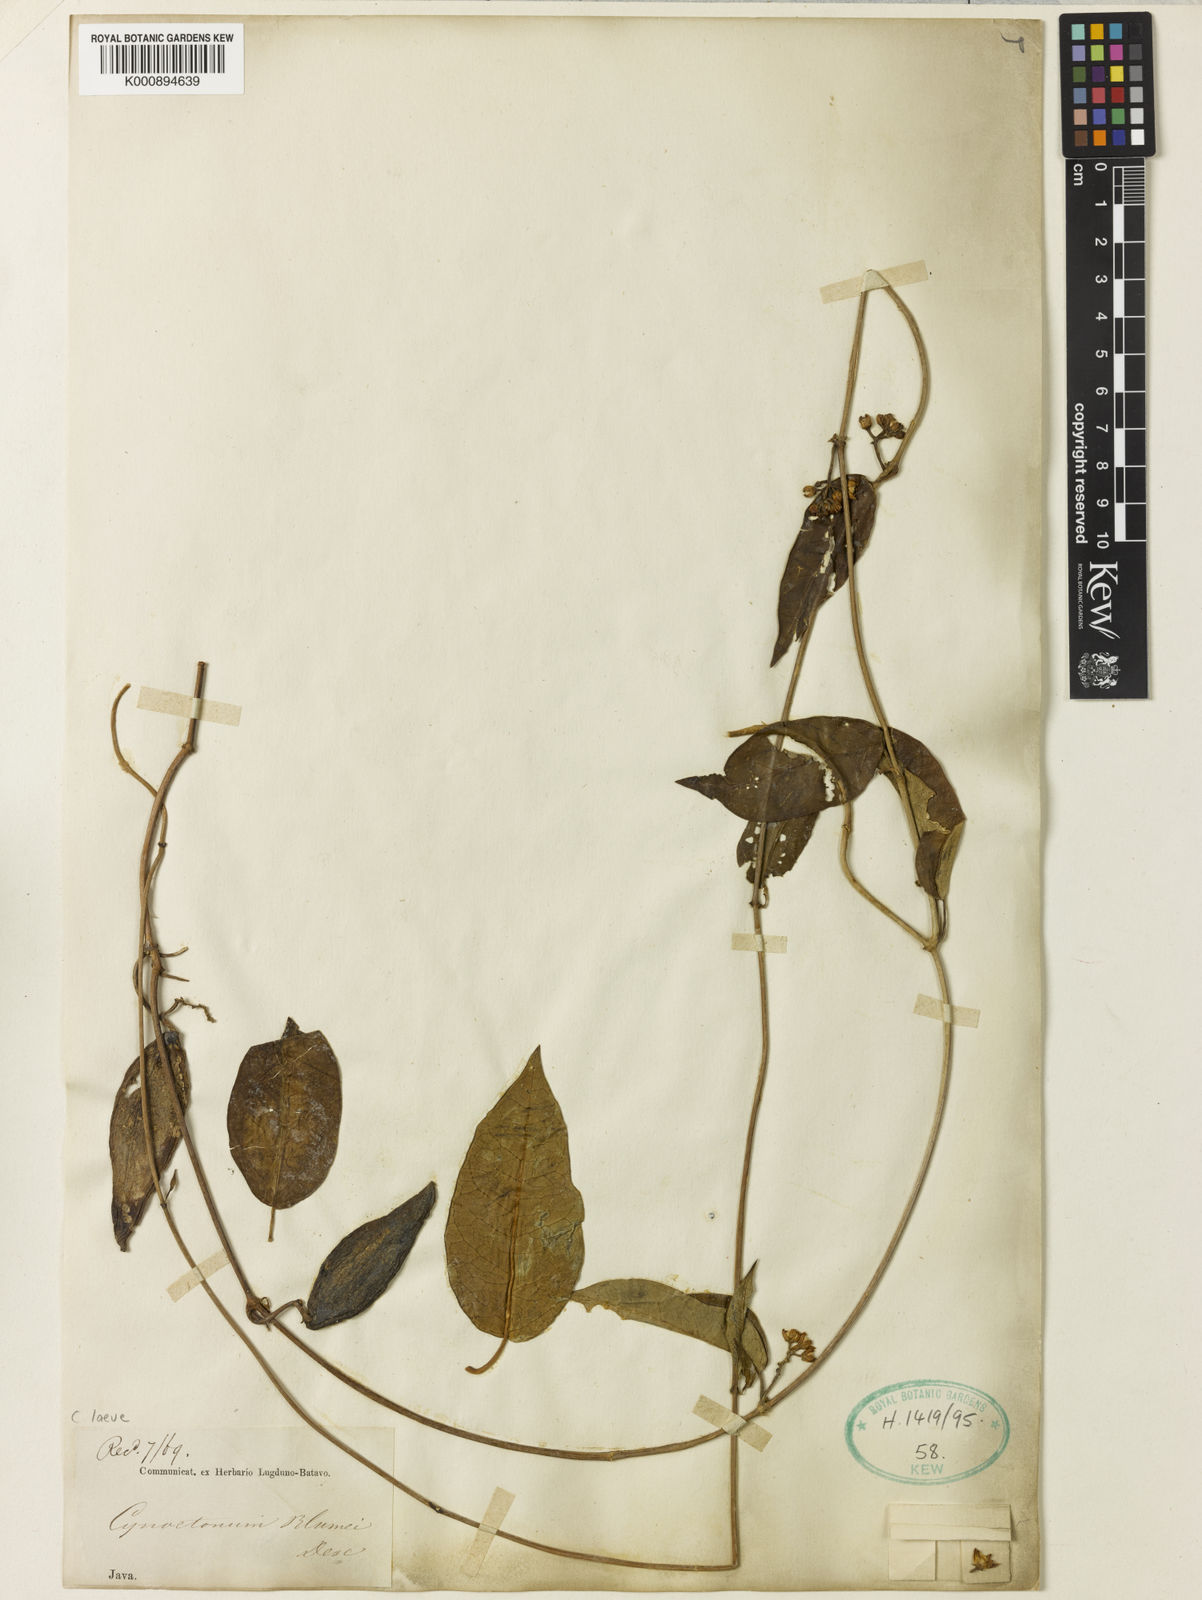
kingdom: Plantae
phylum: Tracheophyta
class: Magnoliopsida
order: Gentianales
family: Apocynaceae
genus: Cynanchum
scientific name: Cynanchum ovalifolium
